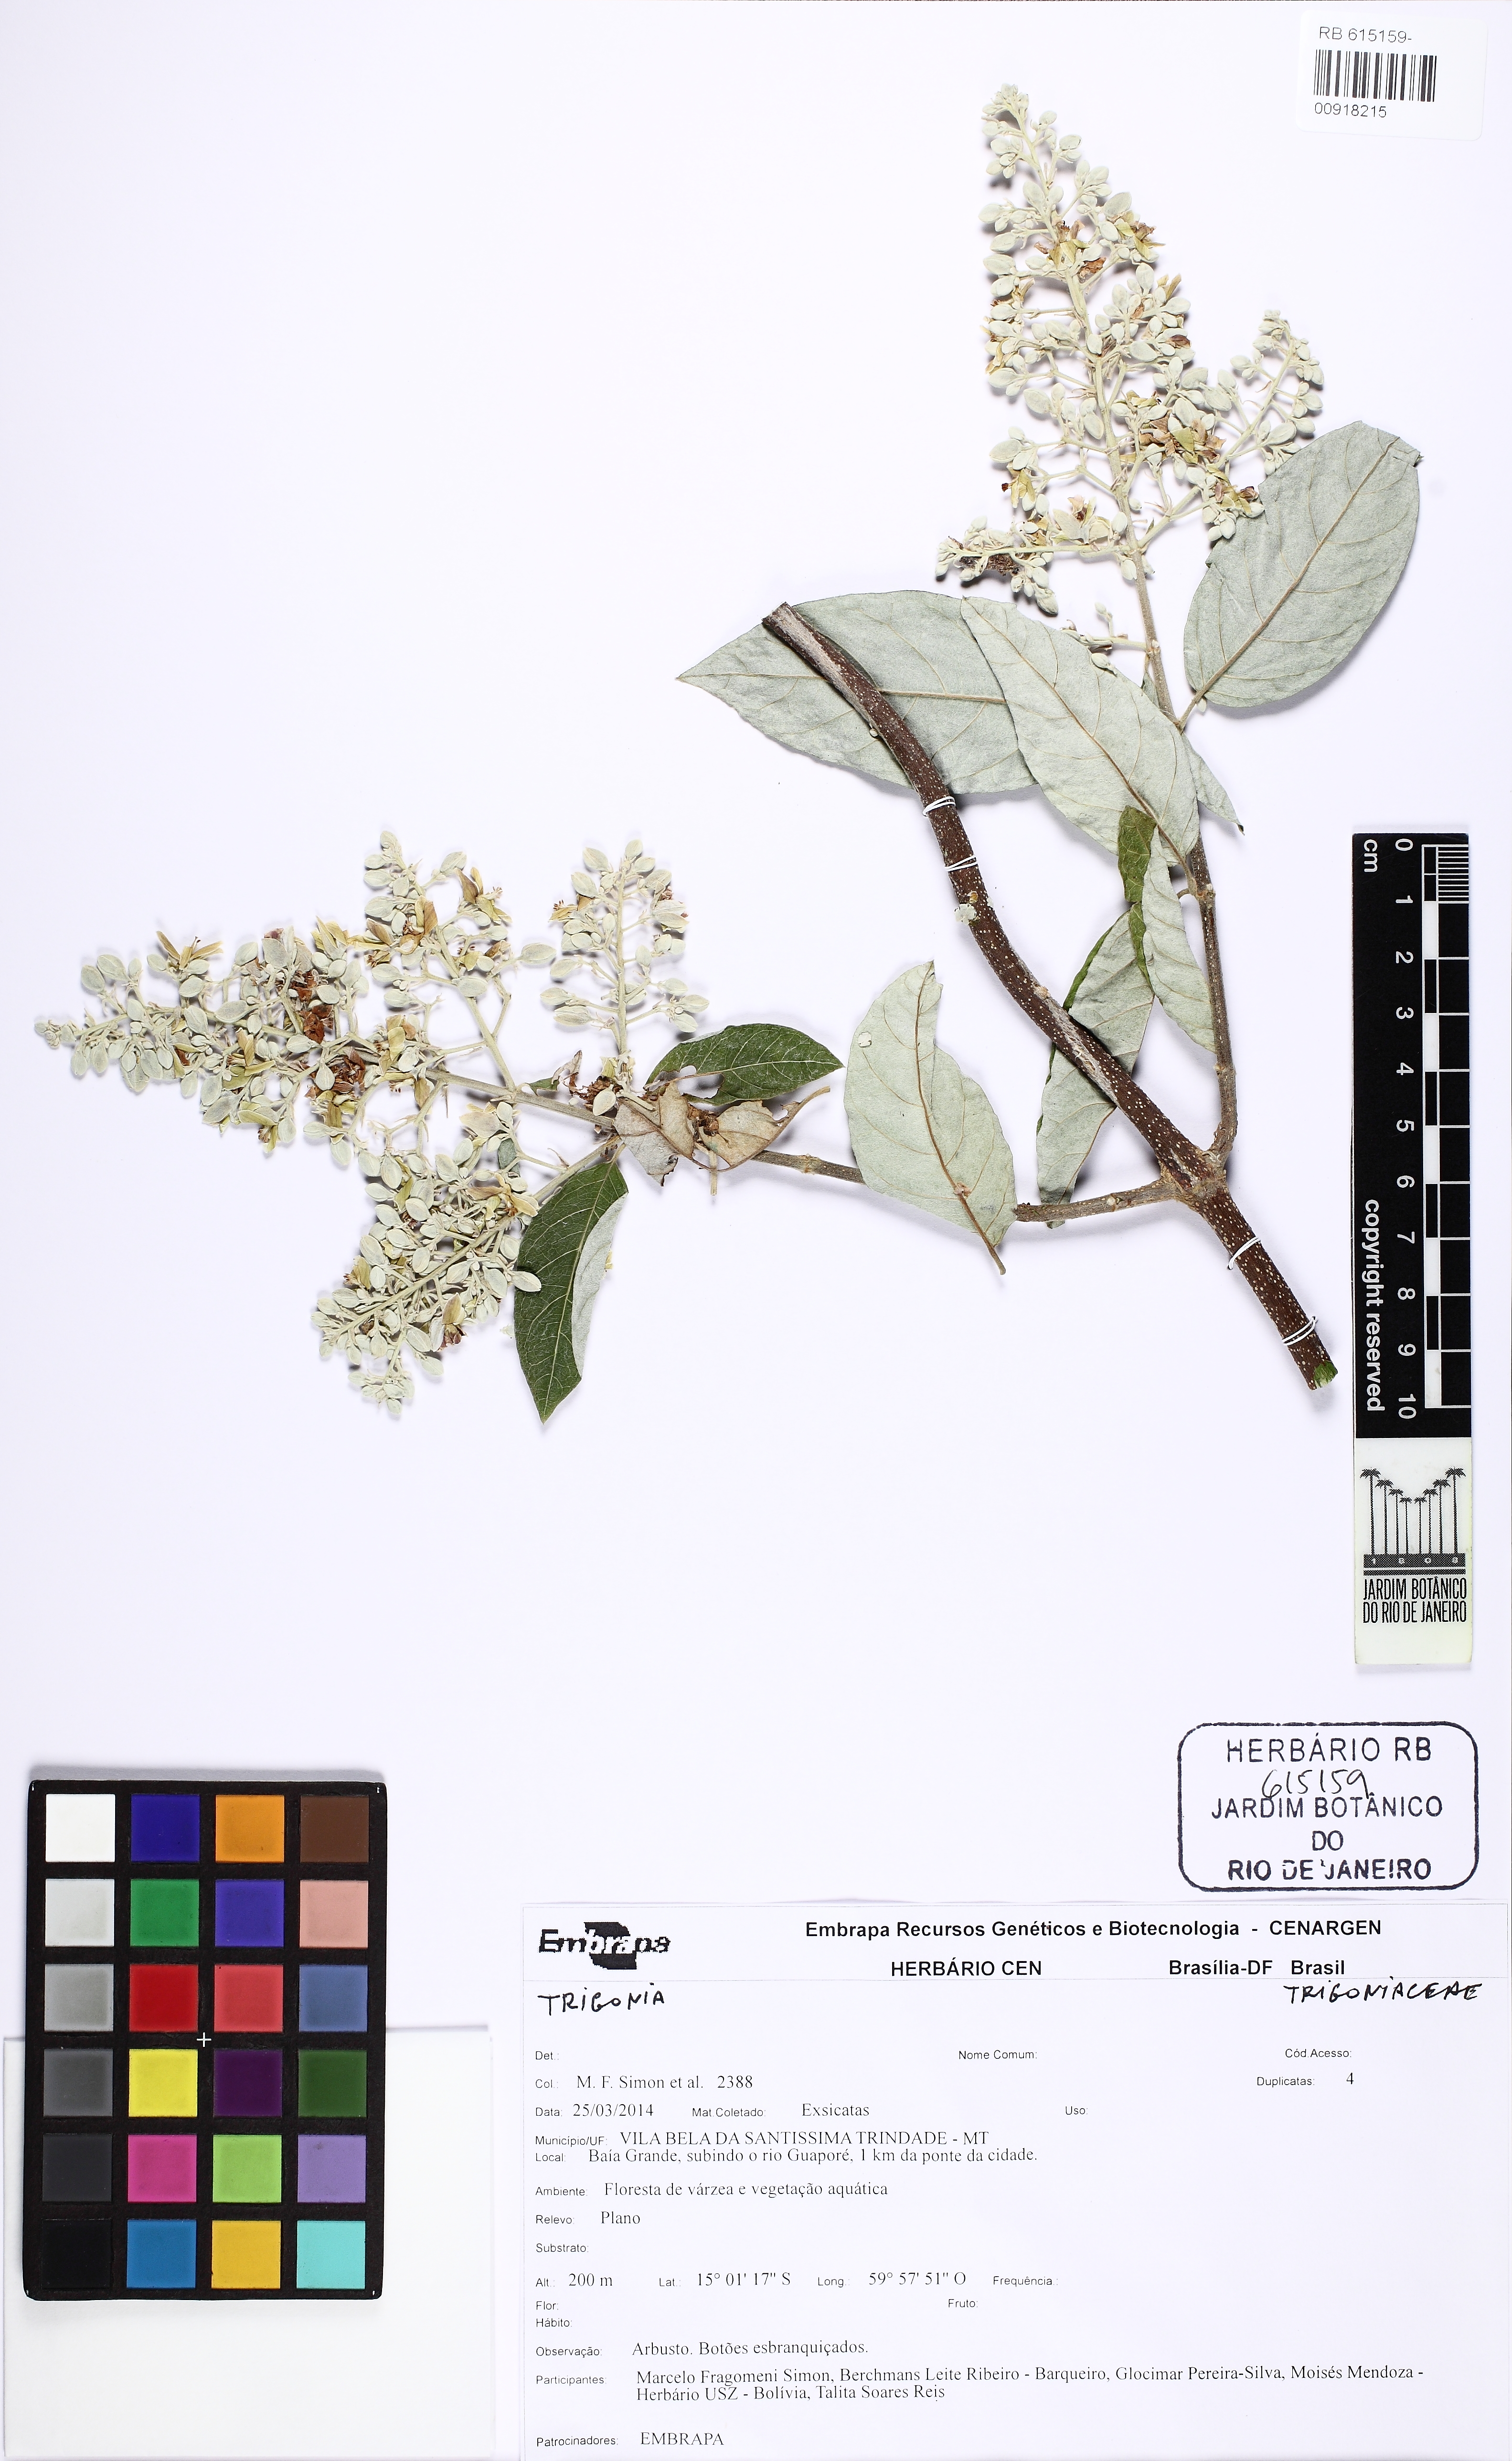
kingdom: Plantae
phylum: Tracheophyta
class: Magnoliopsida
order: Malpighiales
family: Trigoniaceae
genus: Trigonia
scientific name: Trigonia
